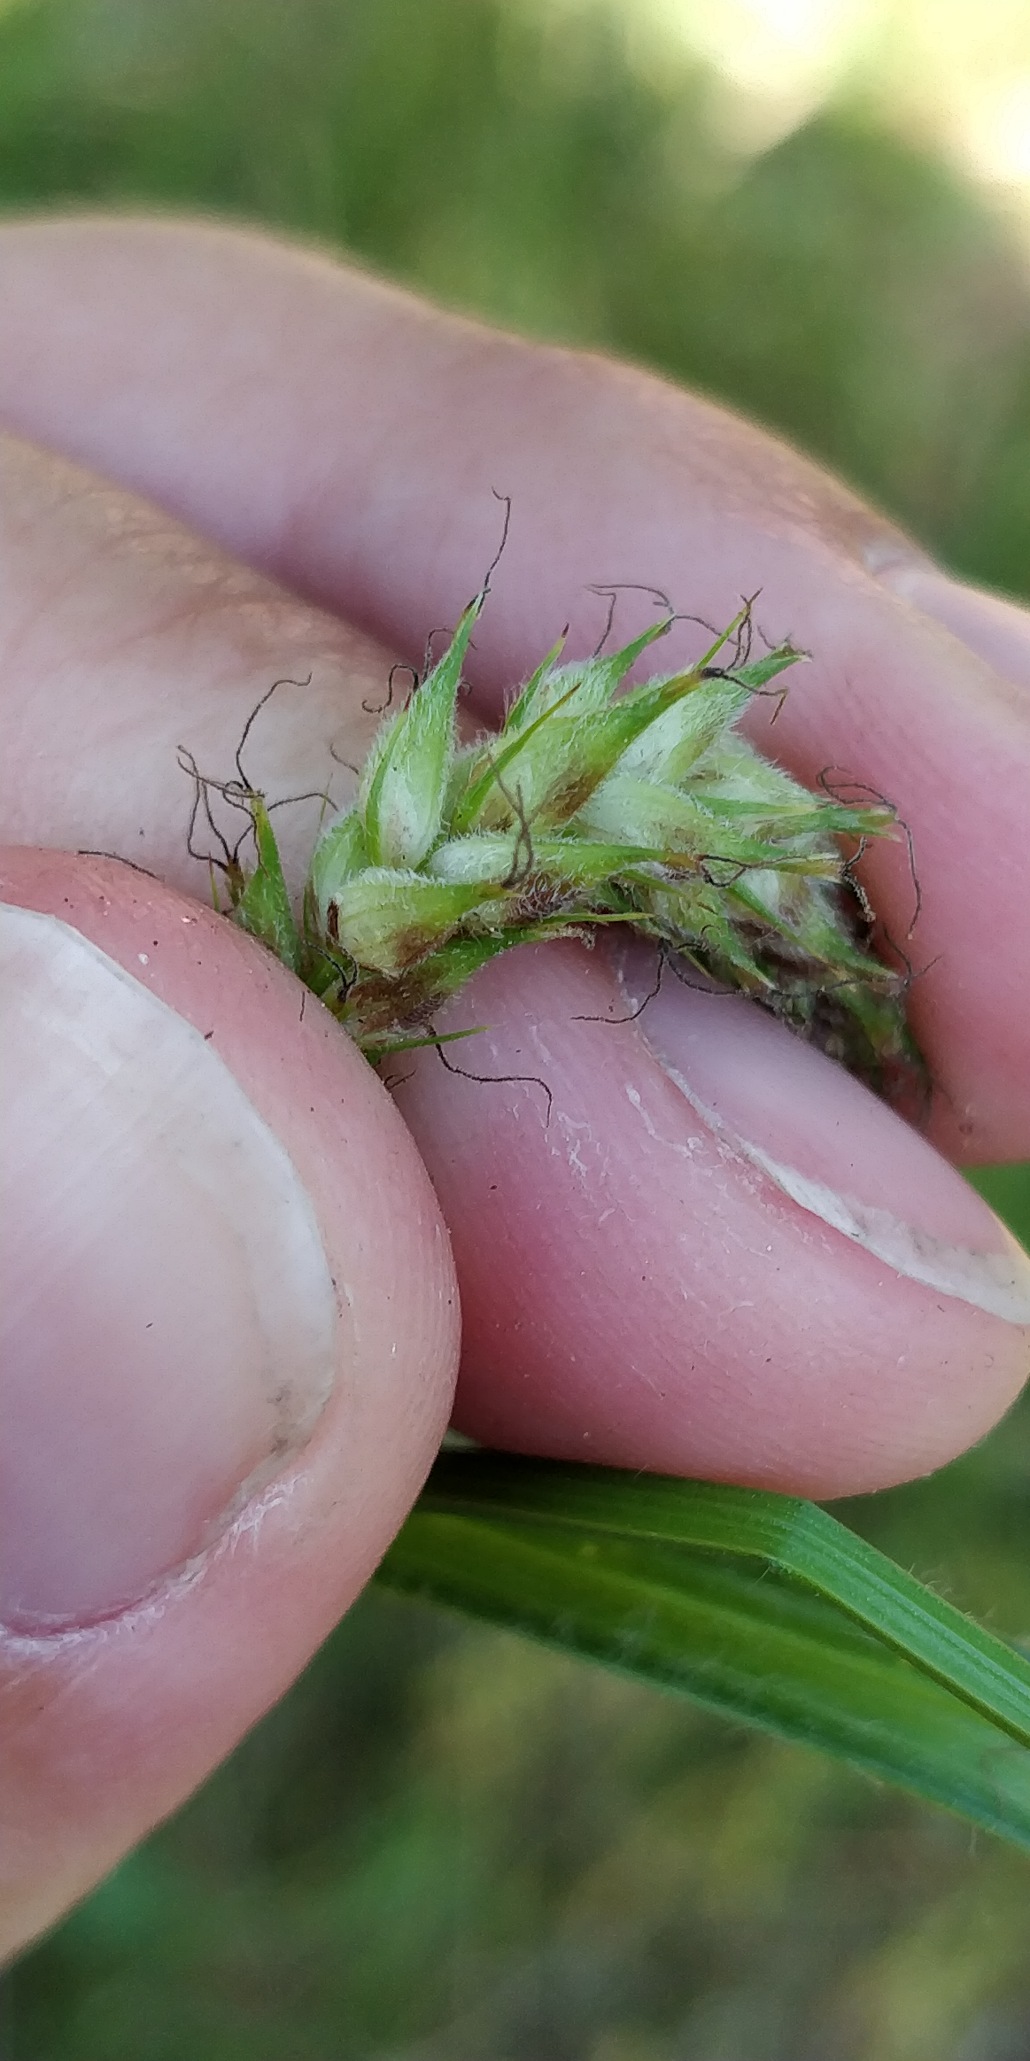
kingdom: Plantae
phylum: Tracheophyta
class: Liliopsida
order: Poales
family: Cyperaceae
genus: Carex
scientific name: Carex hirta
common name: Håret star
